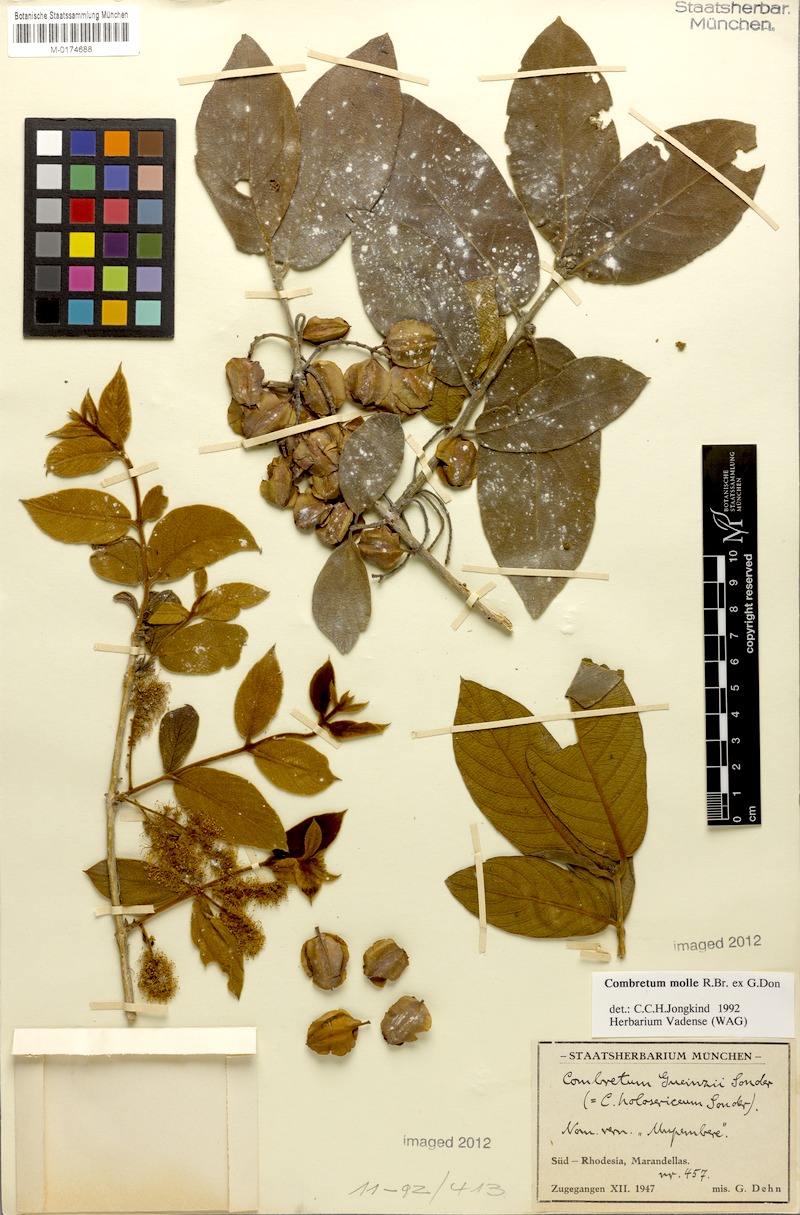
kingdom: Plantae
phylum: Tracheophyta
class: Magnoliopsida
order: Myrtales
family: Combretaceae
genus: Combretum
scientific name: Combretum molle
